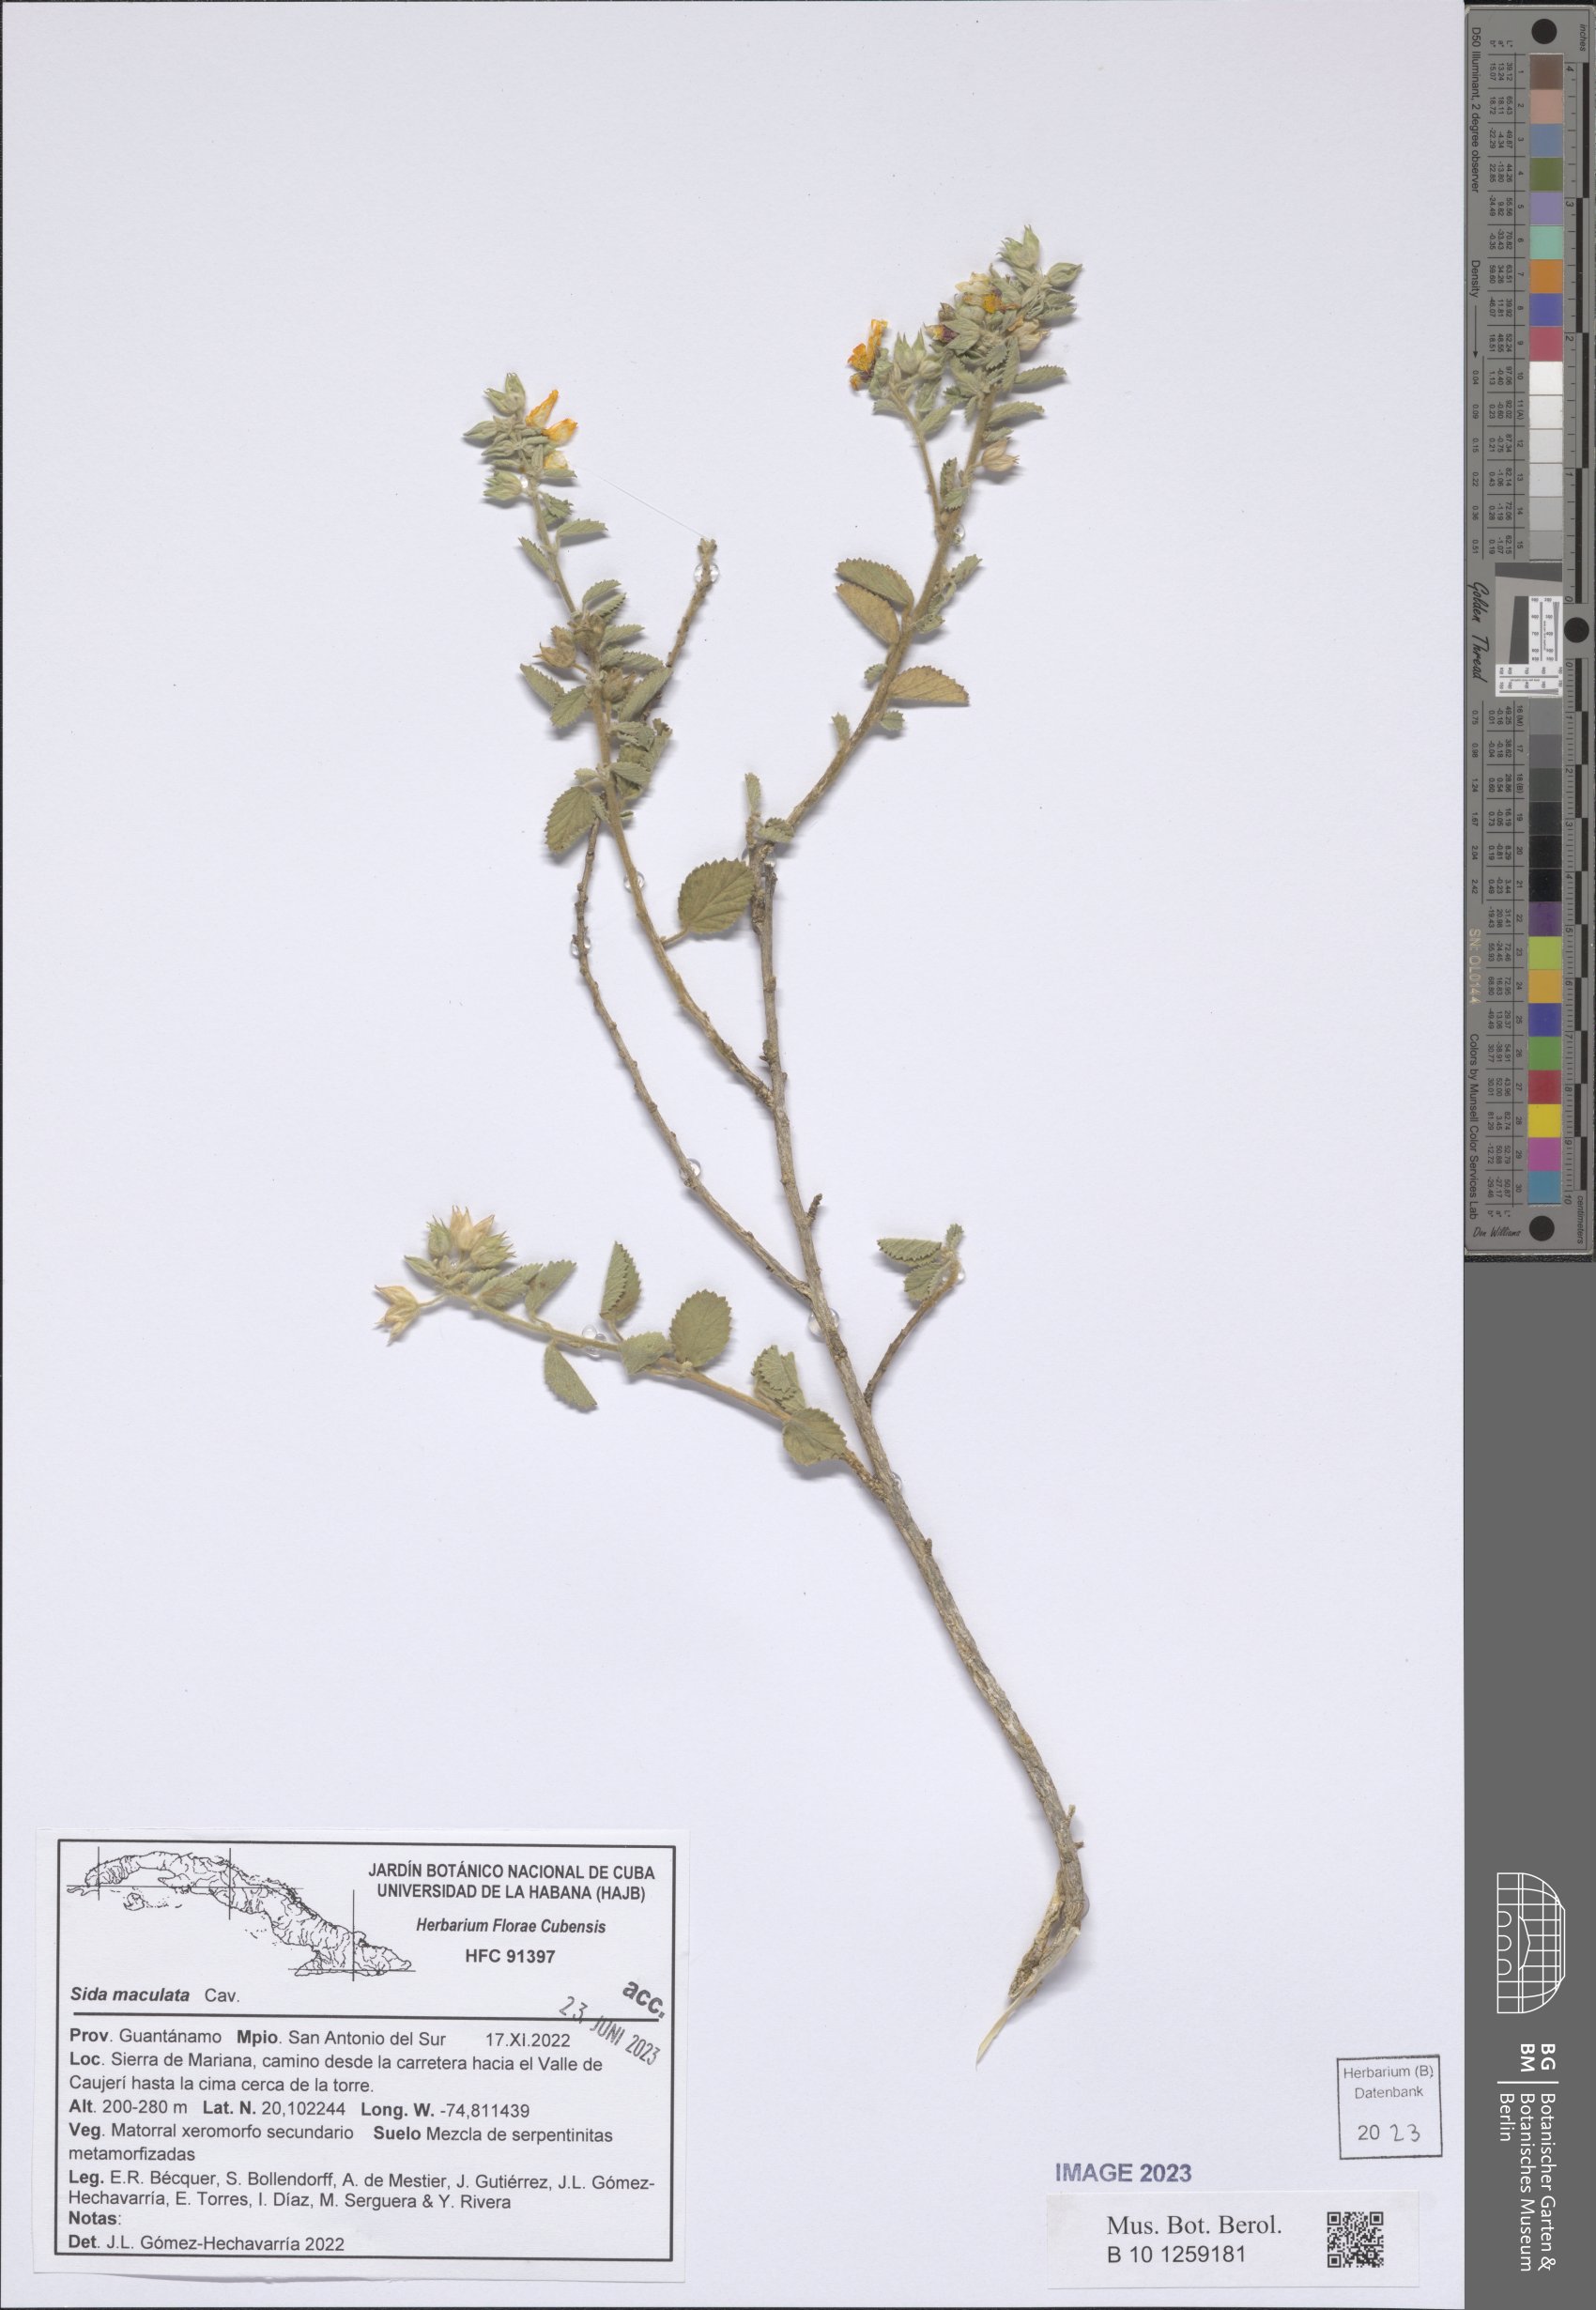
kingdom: Plantae
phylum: Tracheophyta
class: Magnoliopsida
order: Malvales
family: Malvaceae
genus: Sida
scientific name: Sida cordifolia
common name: Ilima
